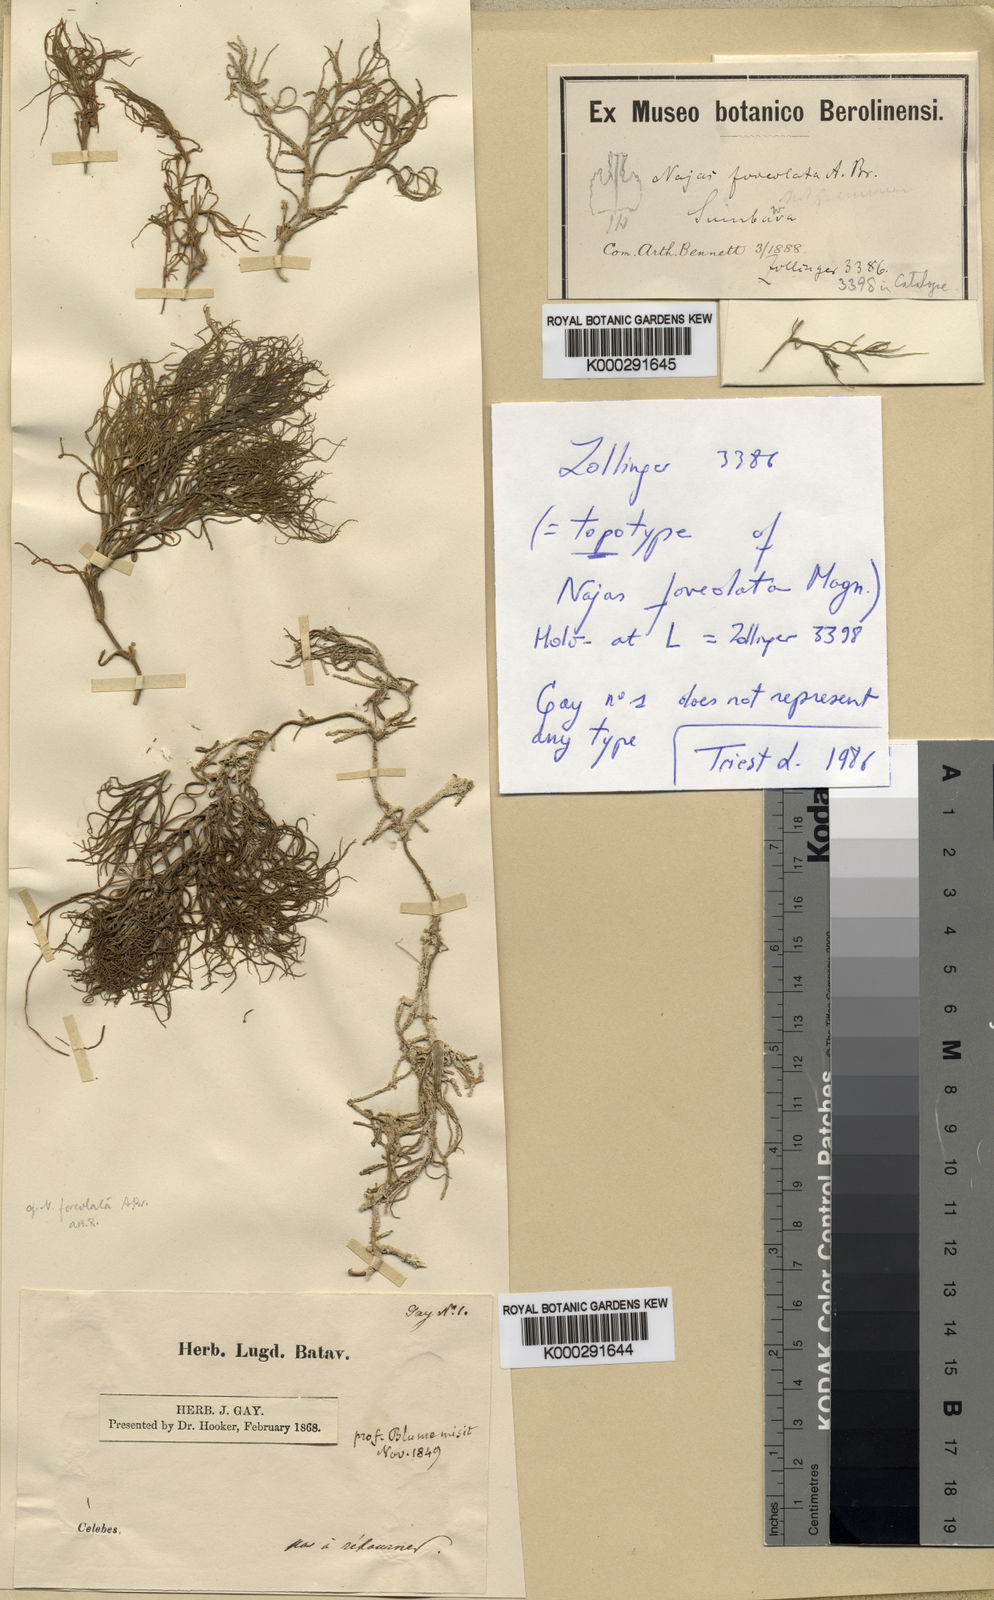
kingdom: Plantae
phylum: Tracheophyta
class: Liliopsida
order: Alismatales
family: Hydrocharitaceae
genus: Najas
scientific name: Najas
